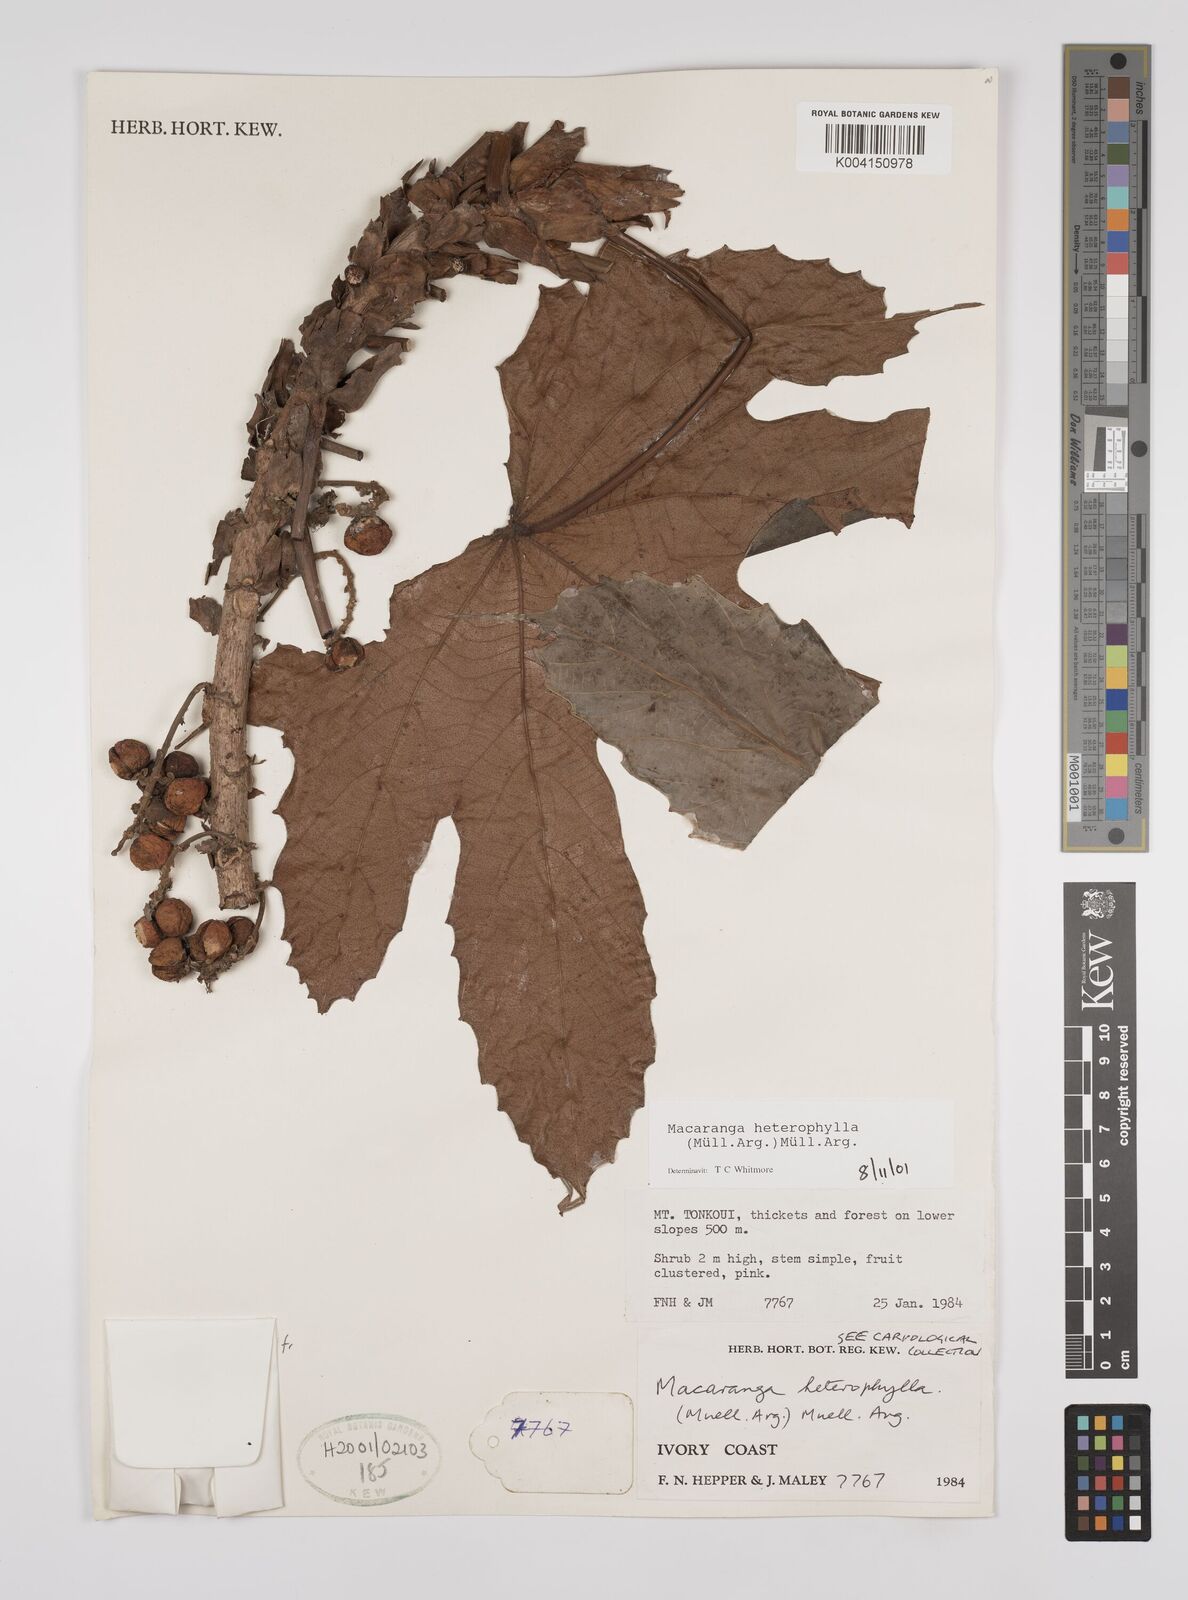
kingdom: Plantae
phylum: Tracheophyta
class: Magnoliopsida
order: Malpighiales
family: Euphorbiaceae
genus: Macaranga
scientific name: Macaranga heterophylla
